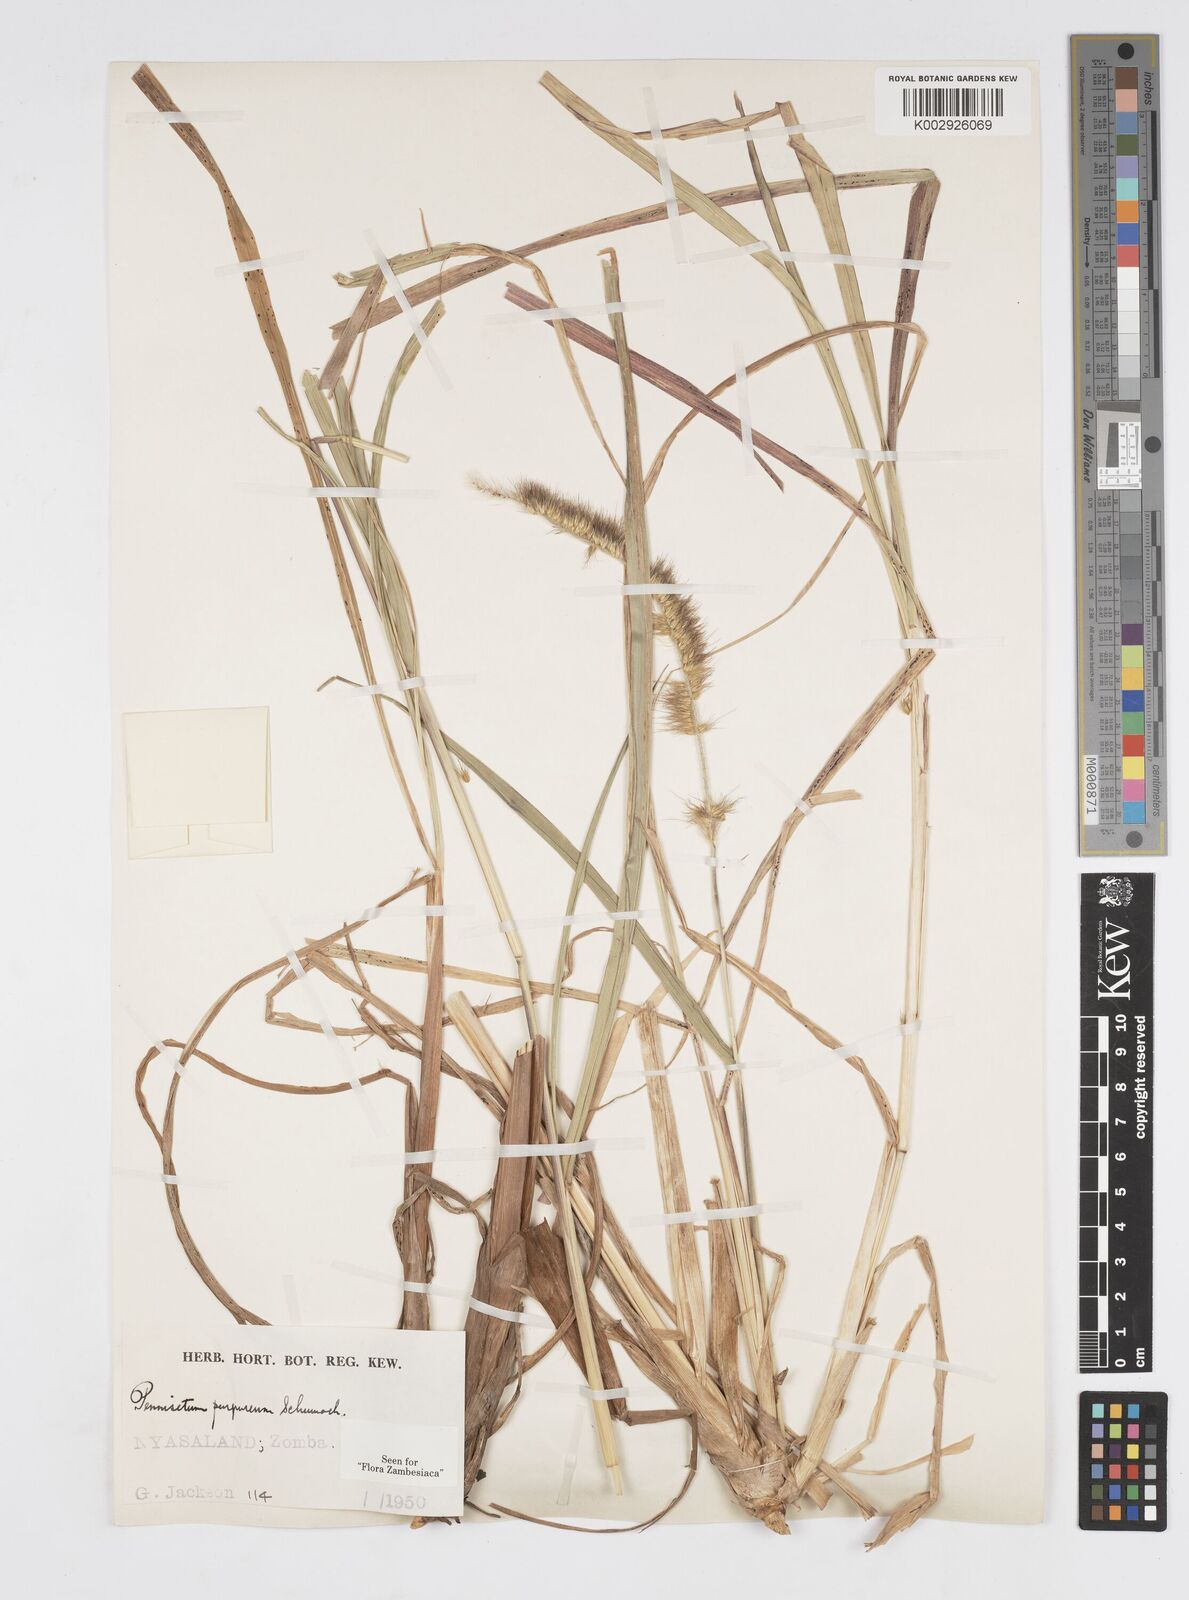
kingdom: Plantae
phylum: Tracheophyta
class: Liliopsida
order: Poales
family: Poaceae
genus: Cenchrus
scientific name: Cenchrus purpureus
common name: Elephant grass
